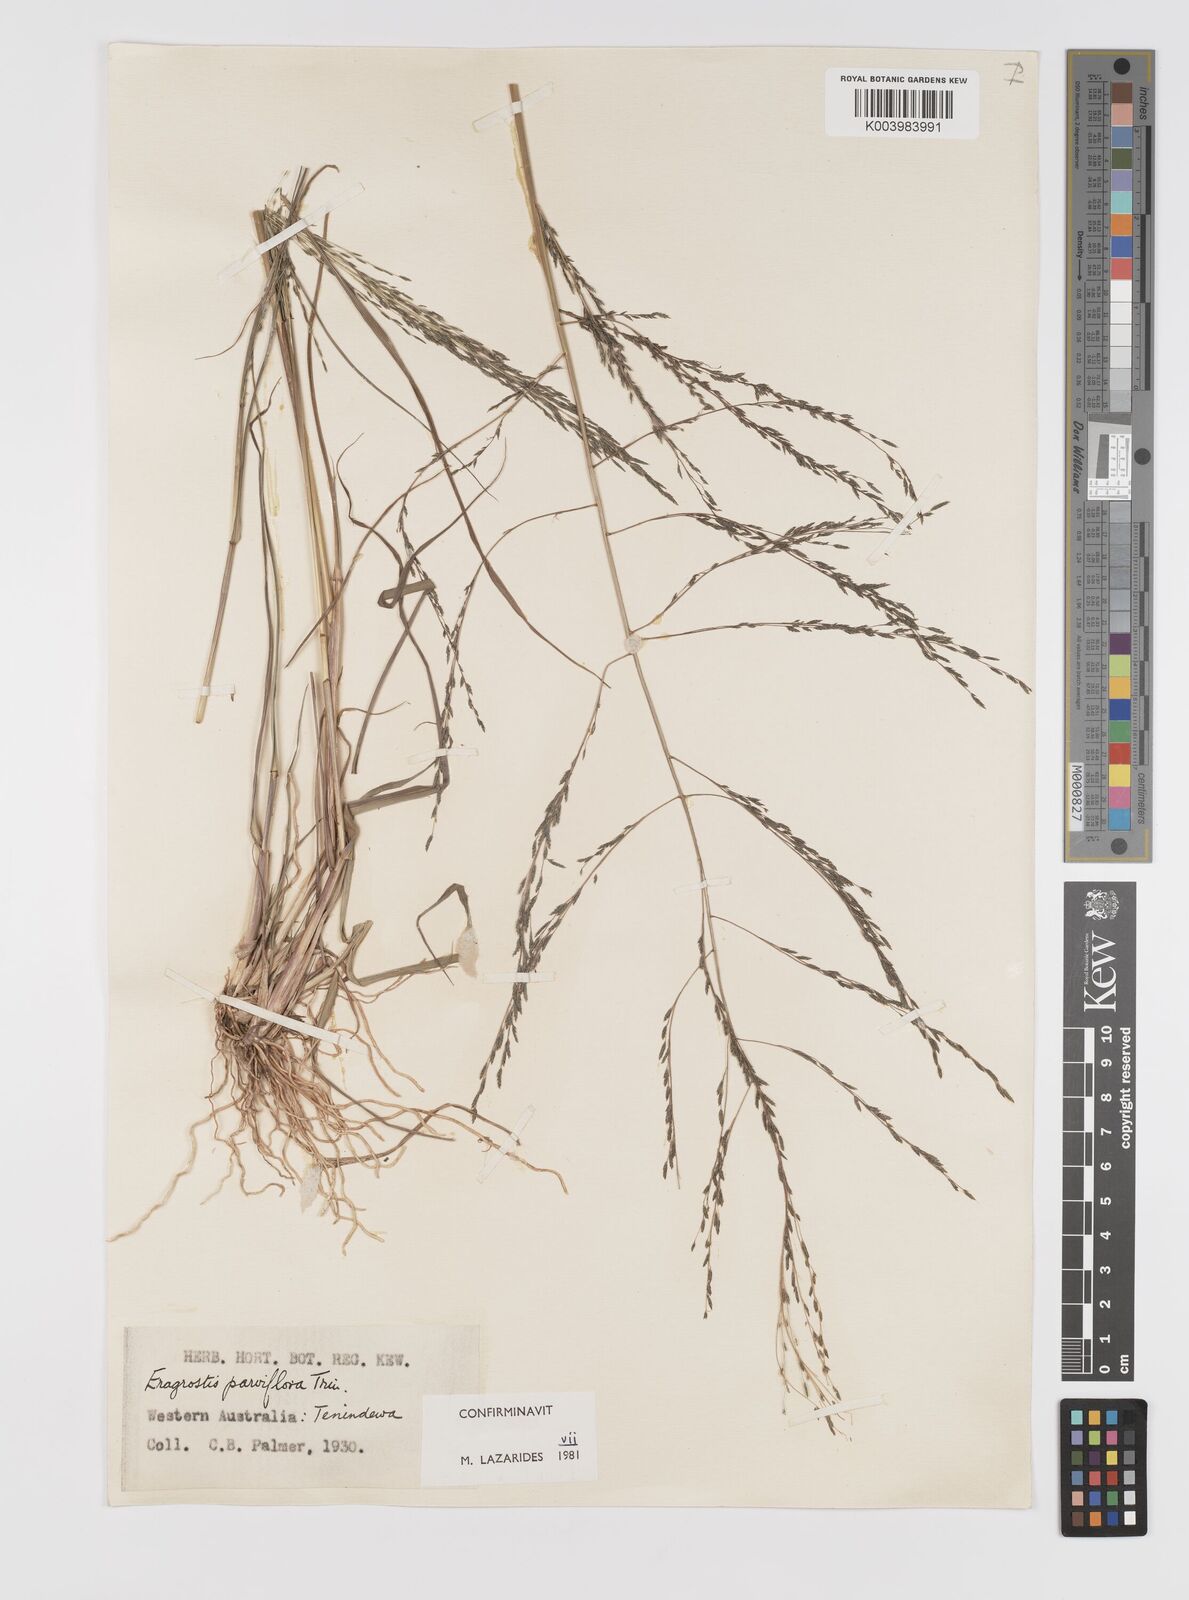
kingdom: Plantae
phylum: Tracheophyta
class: Liliopsida
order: Poales
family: Poaceae
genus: Eragrostis
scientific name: Eragrostis parviflora
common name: Weeping love-grass
